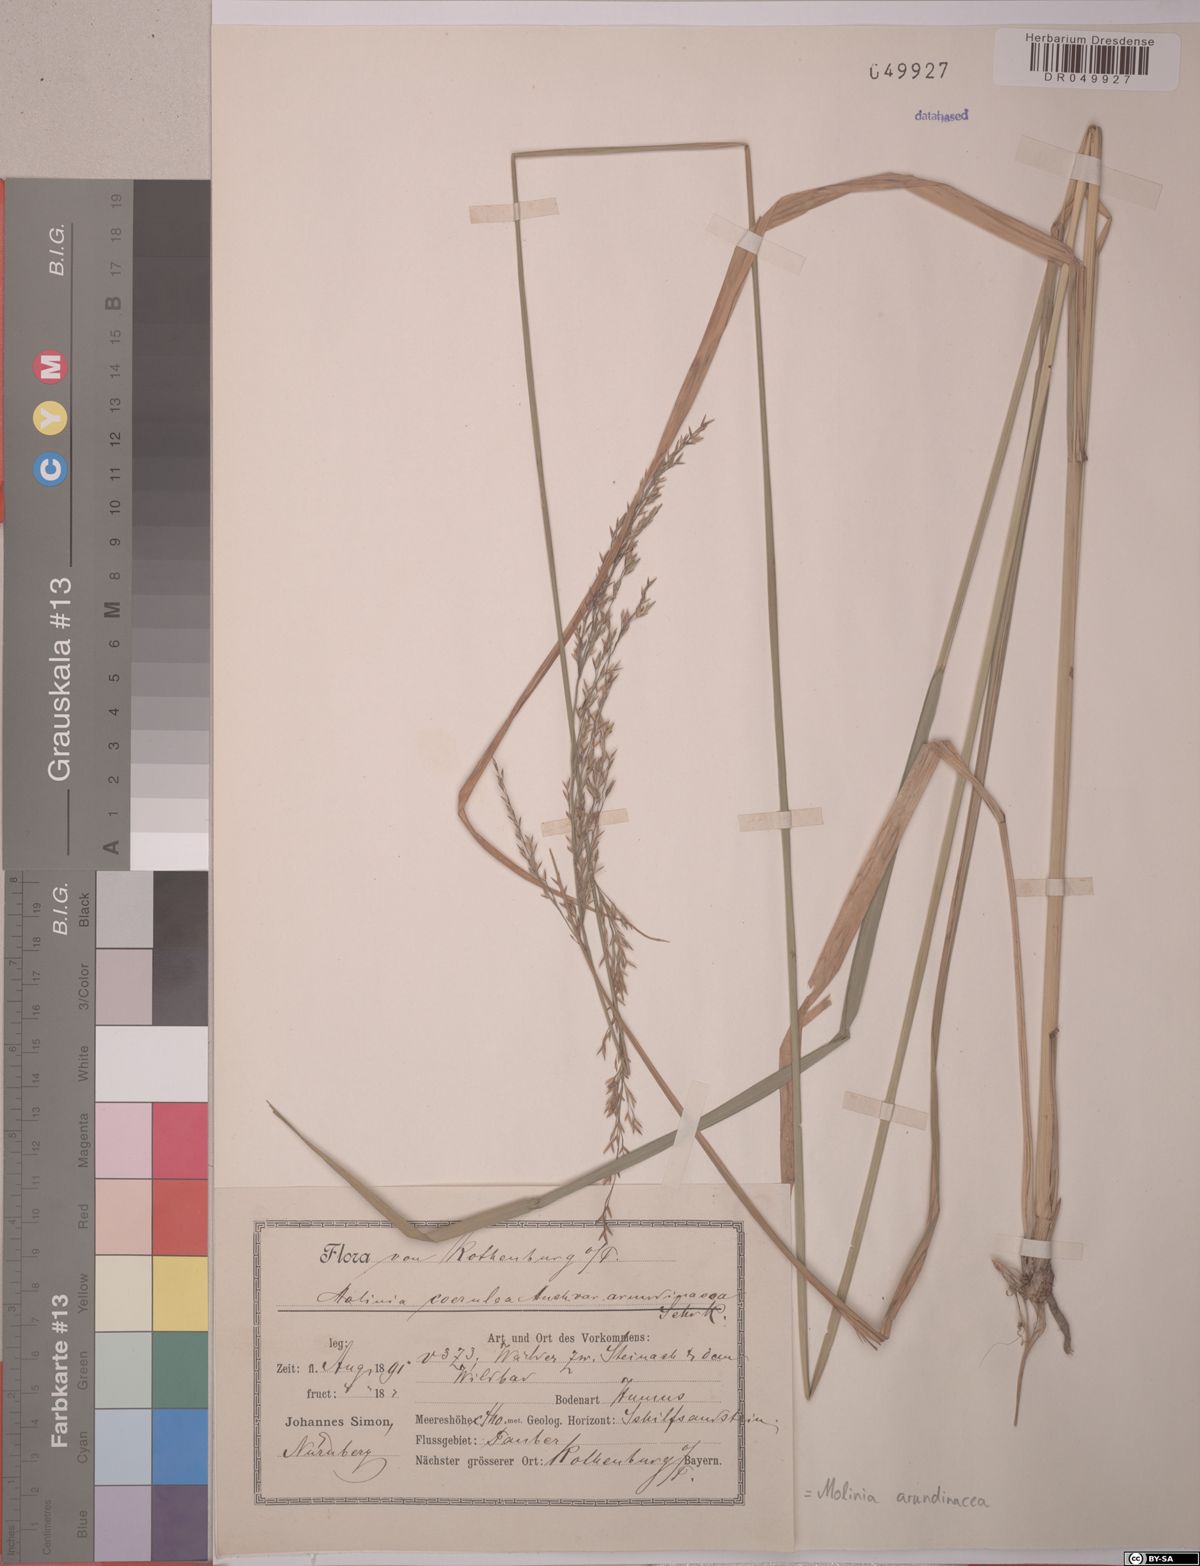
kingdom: Plantae
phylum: Tracheophyta
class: Liliopsida
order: Poales
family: Poaceae
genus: Molinia
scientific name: Molinia arundinacea
